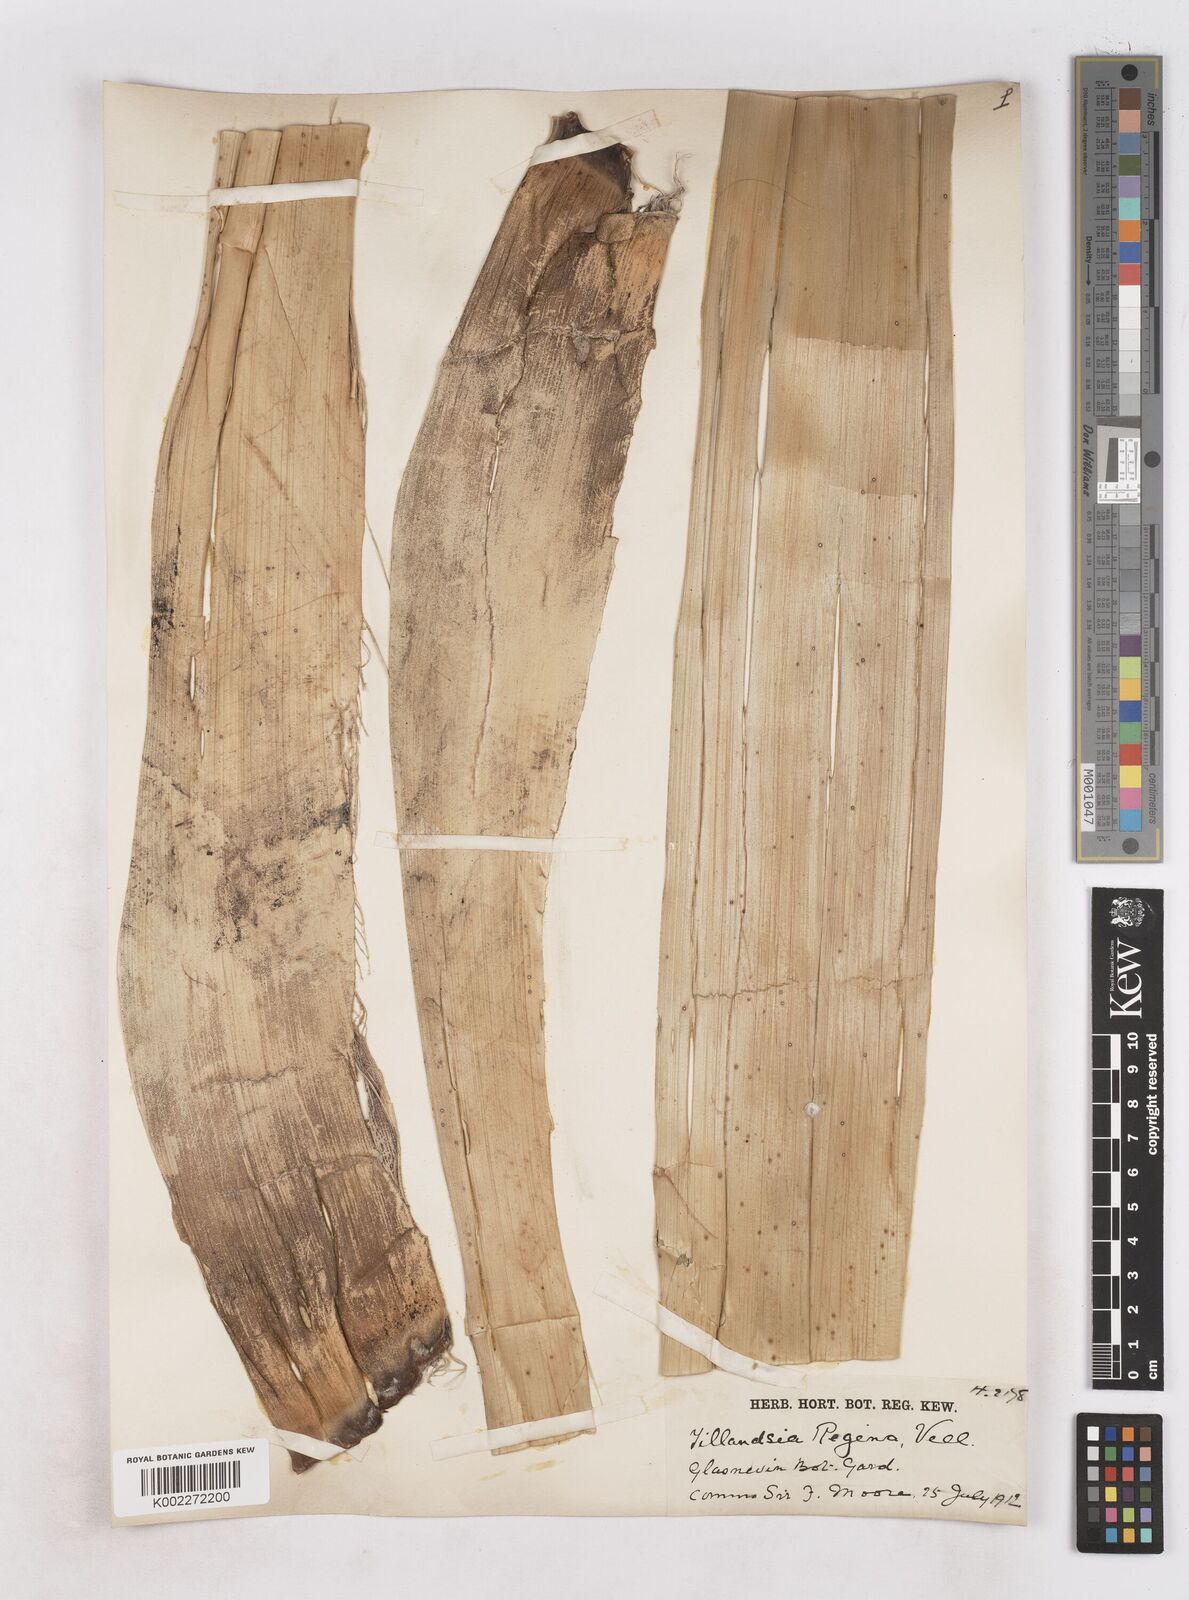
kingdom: Plantae
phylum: Tracheophyta
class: Liliopsida
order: Poales
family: Bromeliaceae
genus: Alcantarea
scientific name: Alcantarea regina
